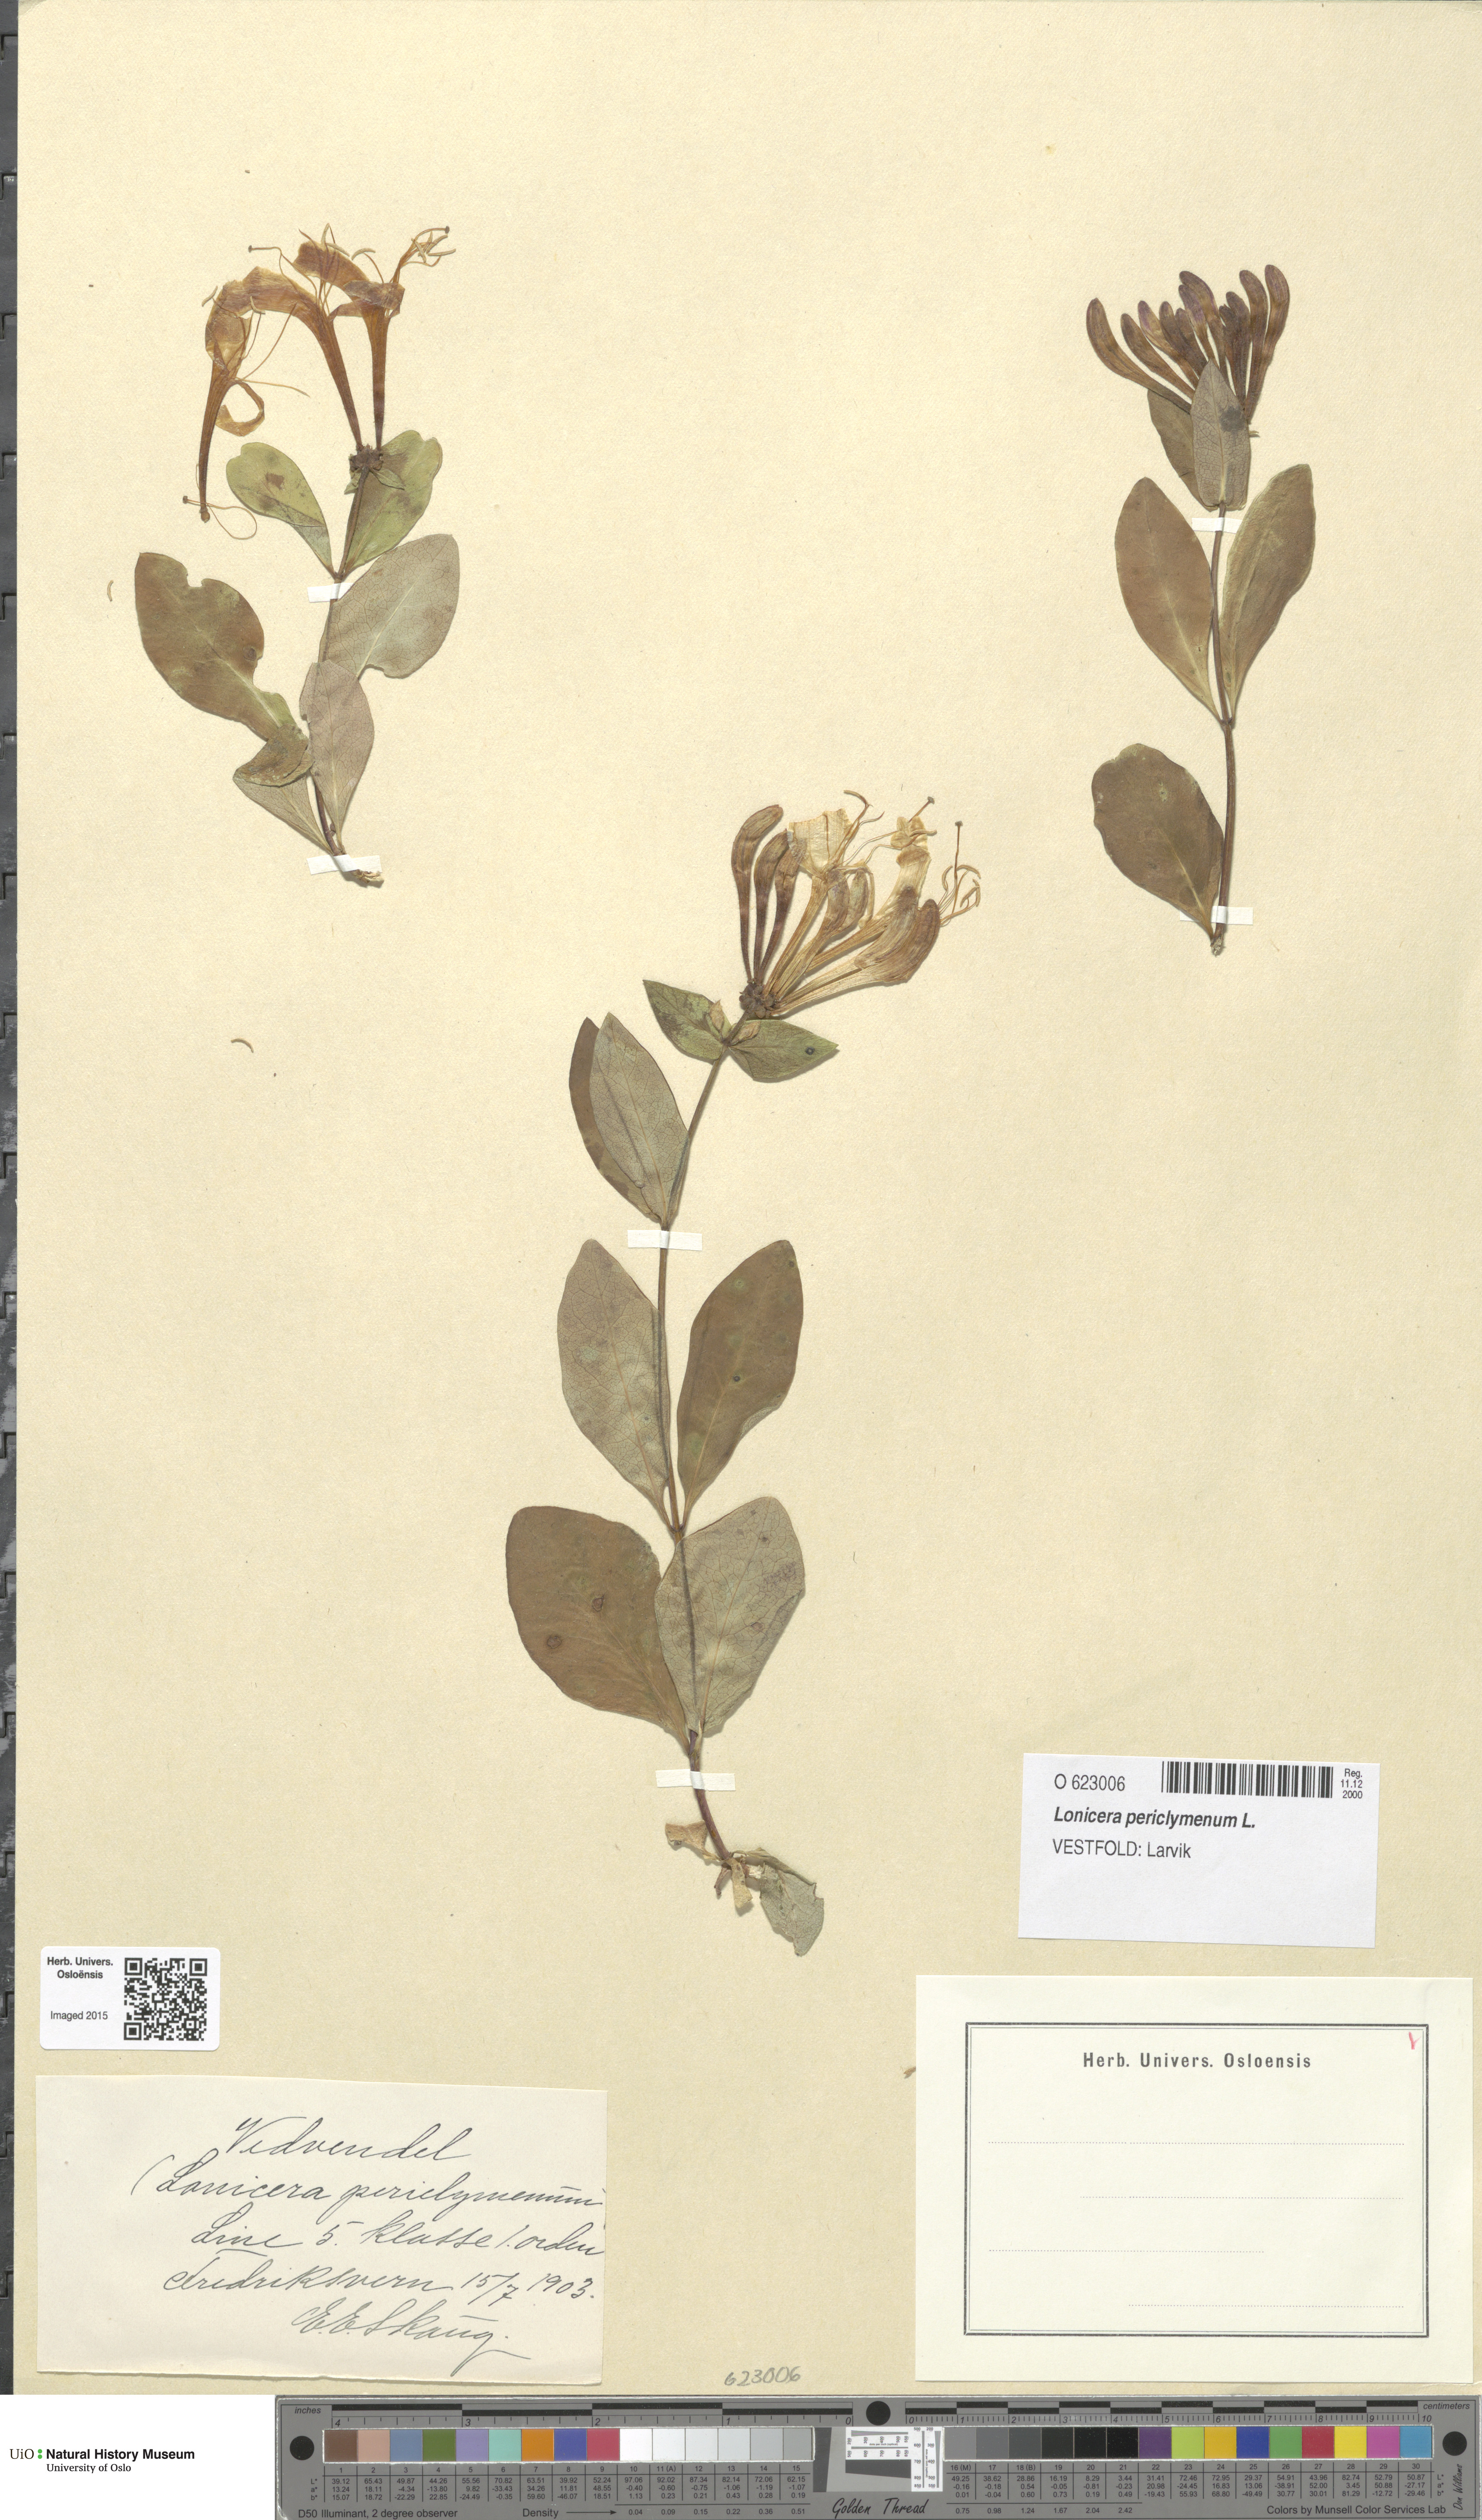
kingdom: Plantae
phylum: Tracheophyta
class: Magnoliopsida
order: Dipsacales
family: Caprifoliaceae
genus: Lonicera
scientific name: Lonicera periclymenum
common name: European honeysuckle
